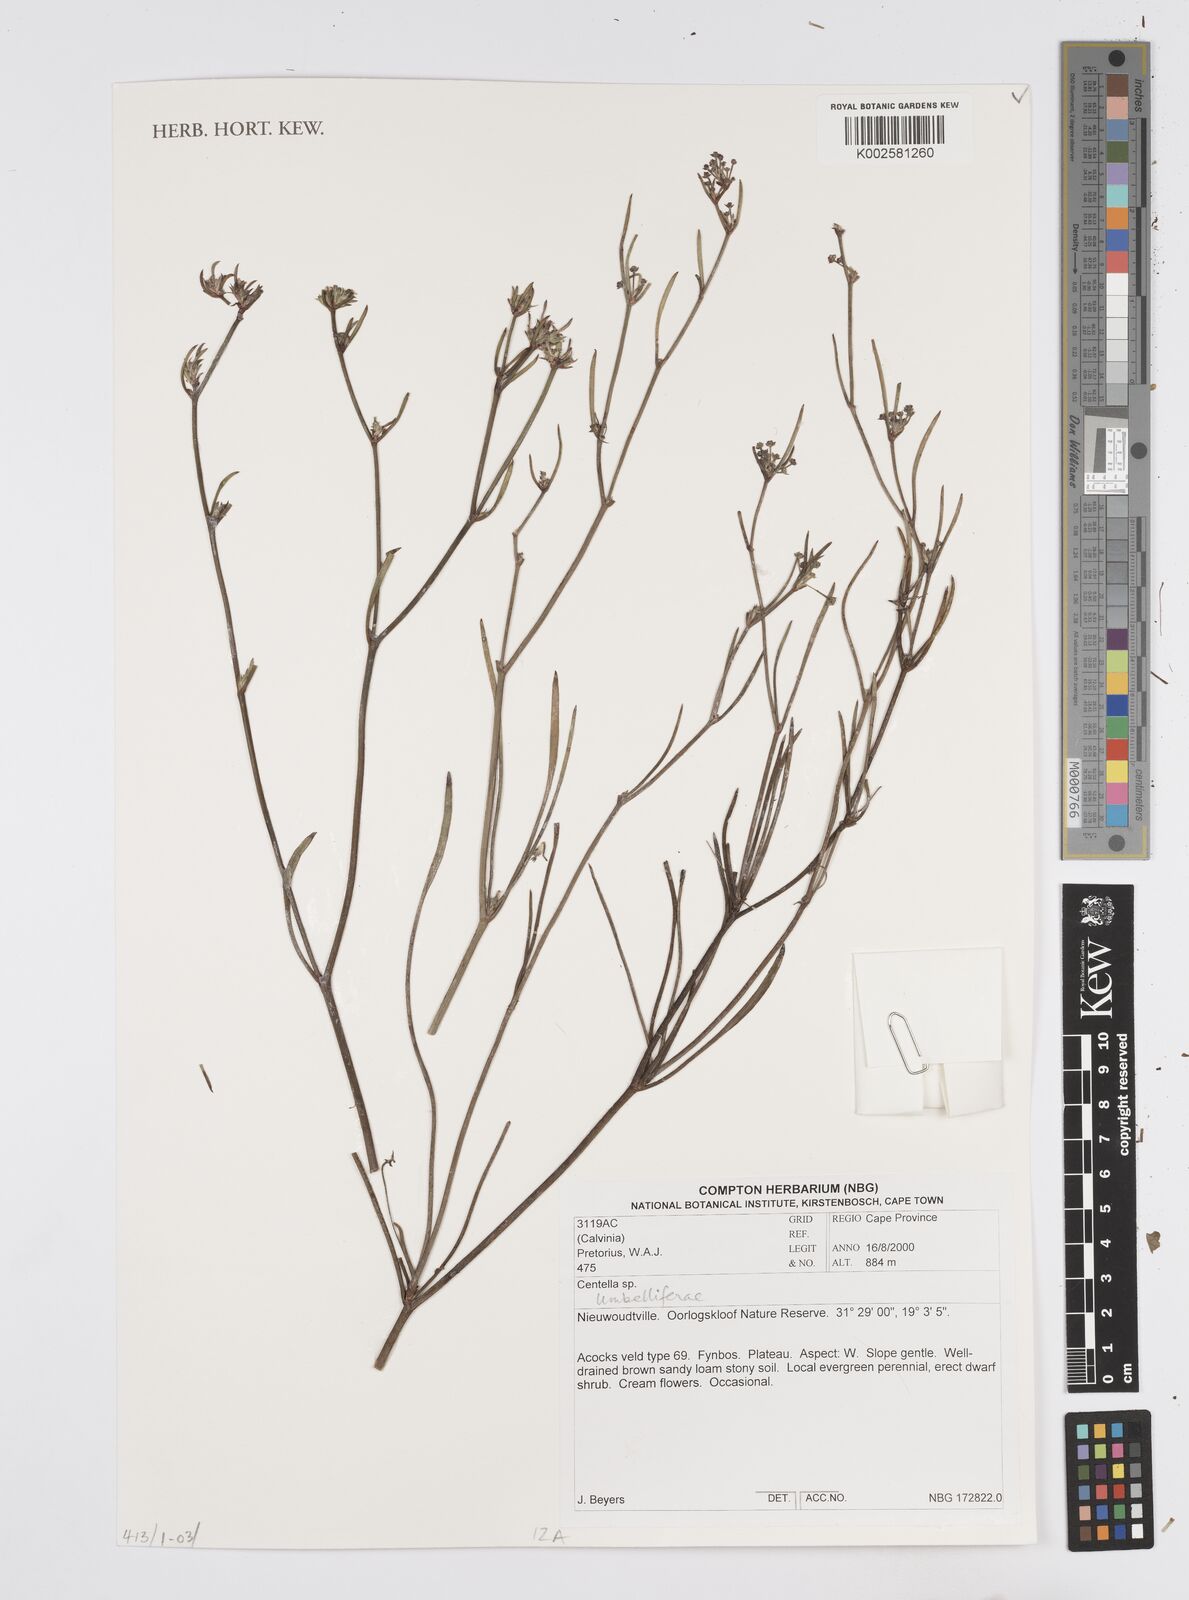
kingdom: Plantae
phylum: Tracheophyta
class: Magnoliopsida
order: Apiales
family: Apiaceae
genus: Centella
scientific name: Centella linifolia
